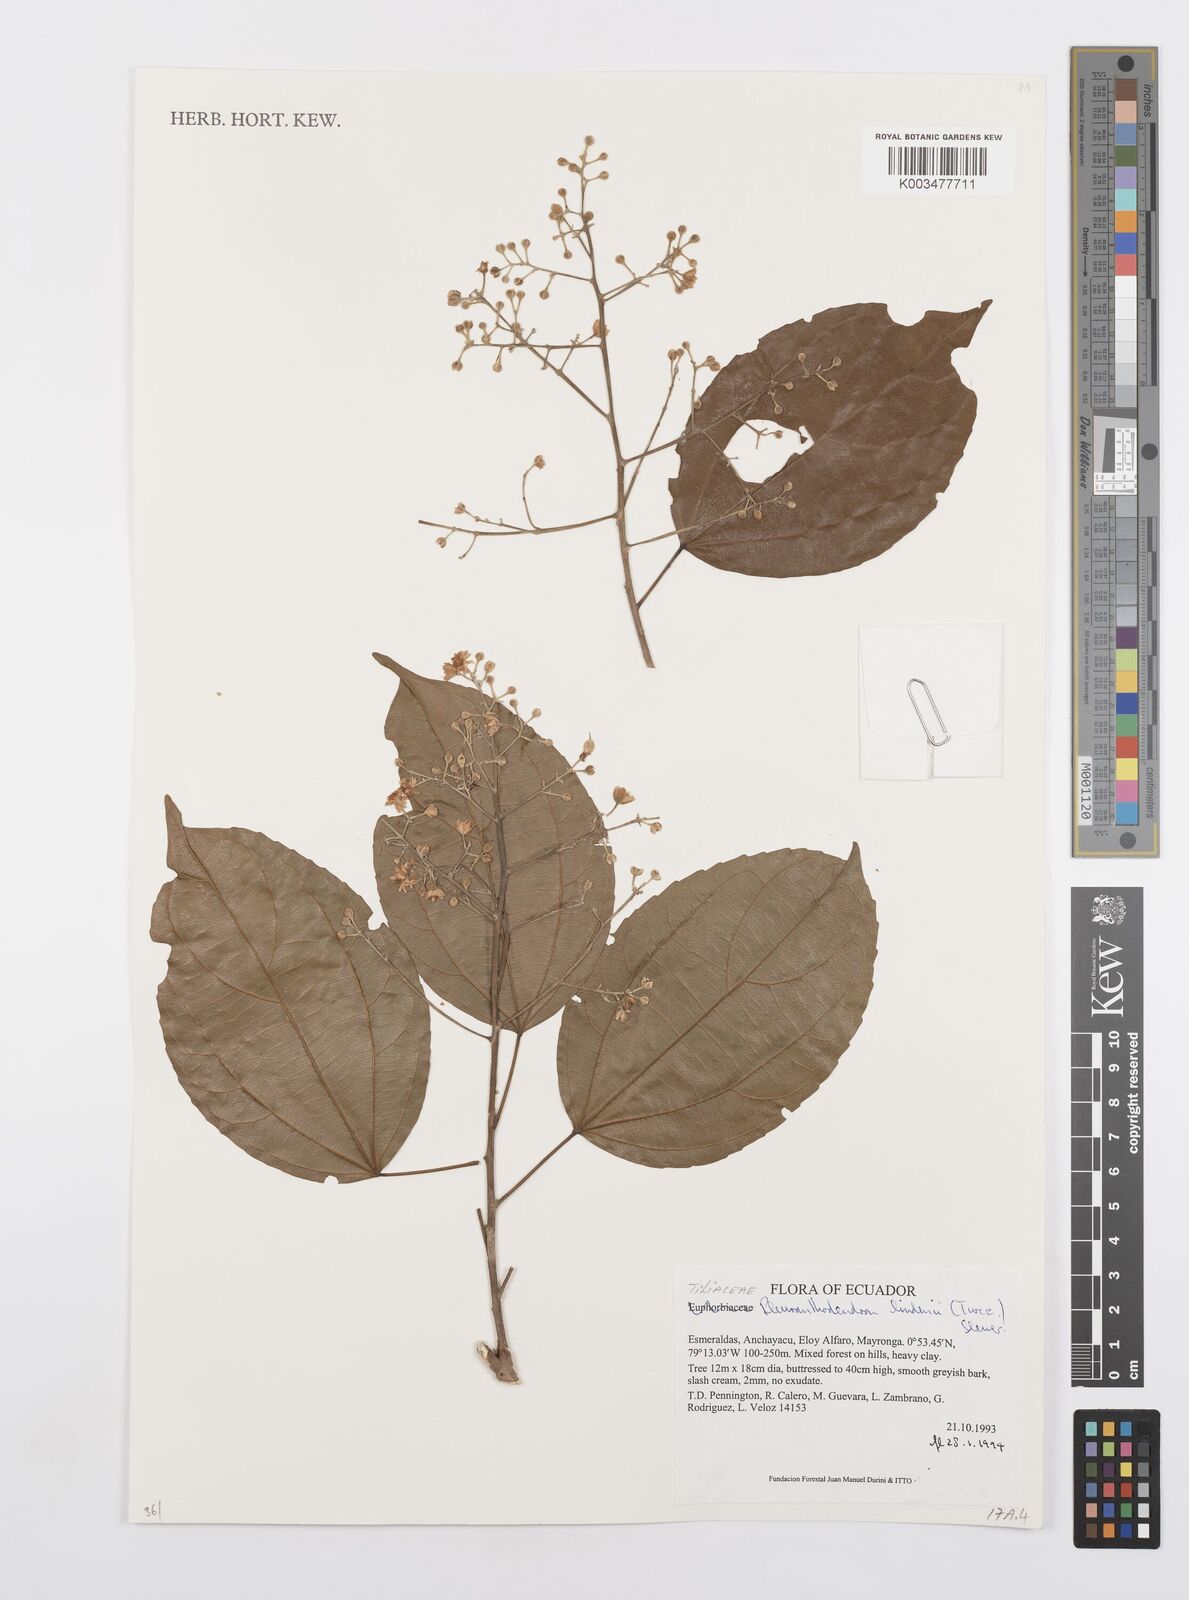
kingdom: Plantae
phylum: Tracheophyta
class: Magnoliopsida
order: Malpighiales
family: Salicaceae
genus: Pleuranthodendron
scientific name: Pleuranthodendron lindenii
